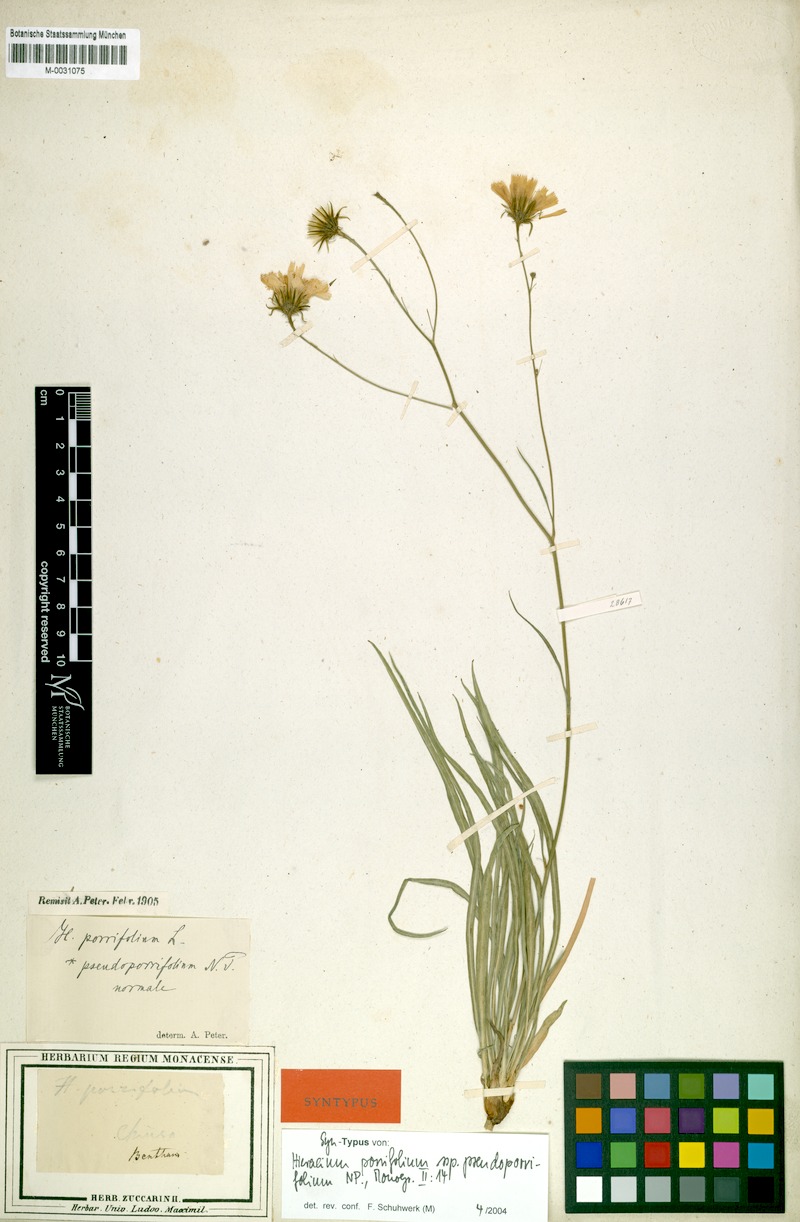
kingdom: Plantae
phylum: Tracheophyta
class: Magnoliopsida
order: Asterales
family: Asteraceae
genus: Hieracium
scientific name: Hieracium porrifolium
